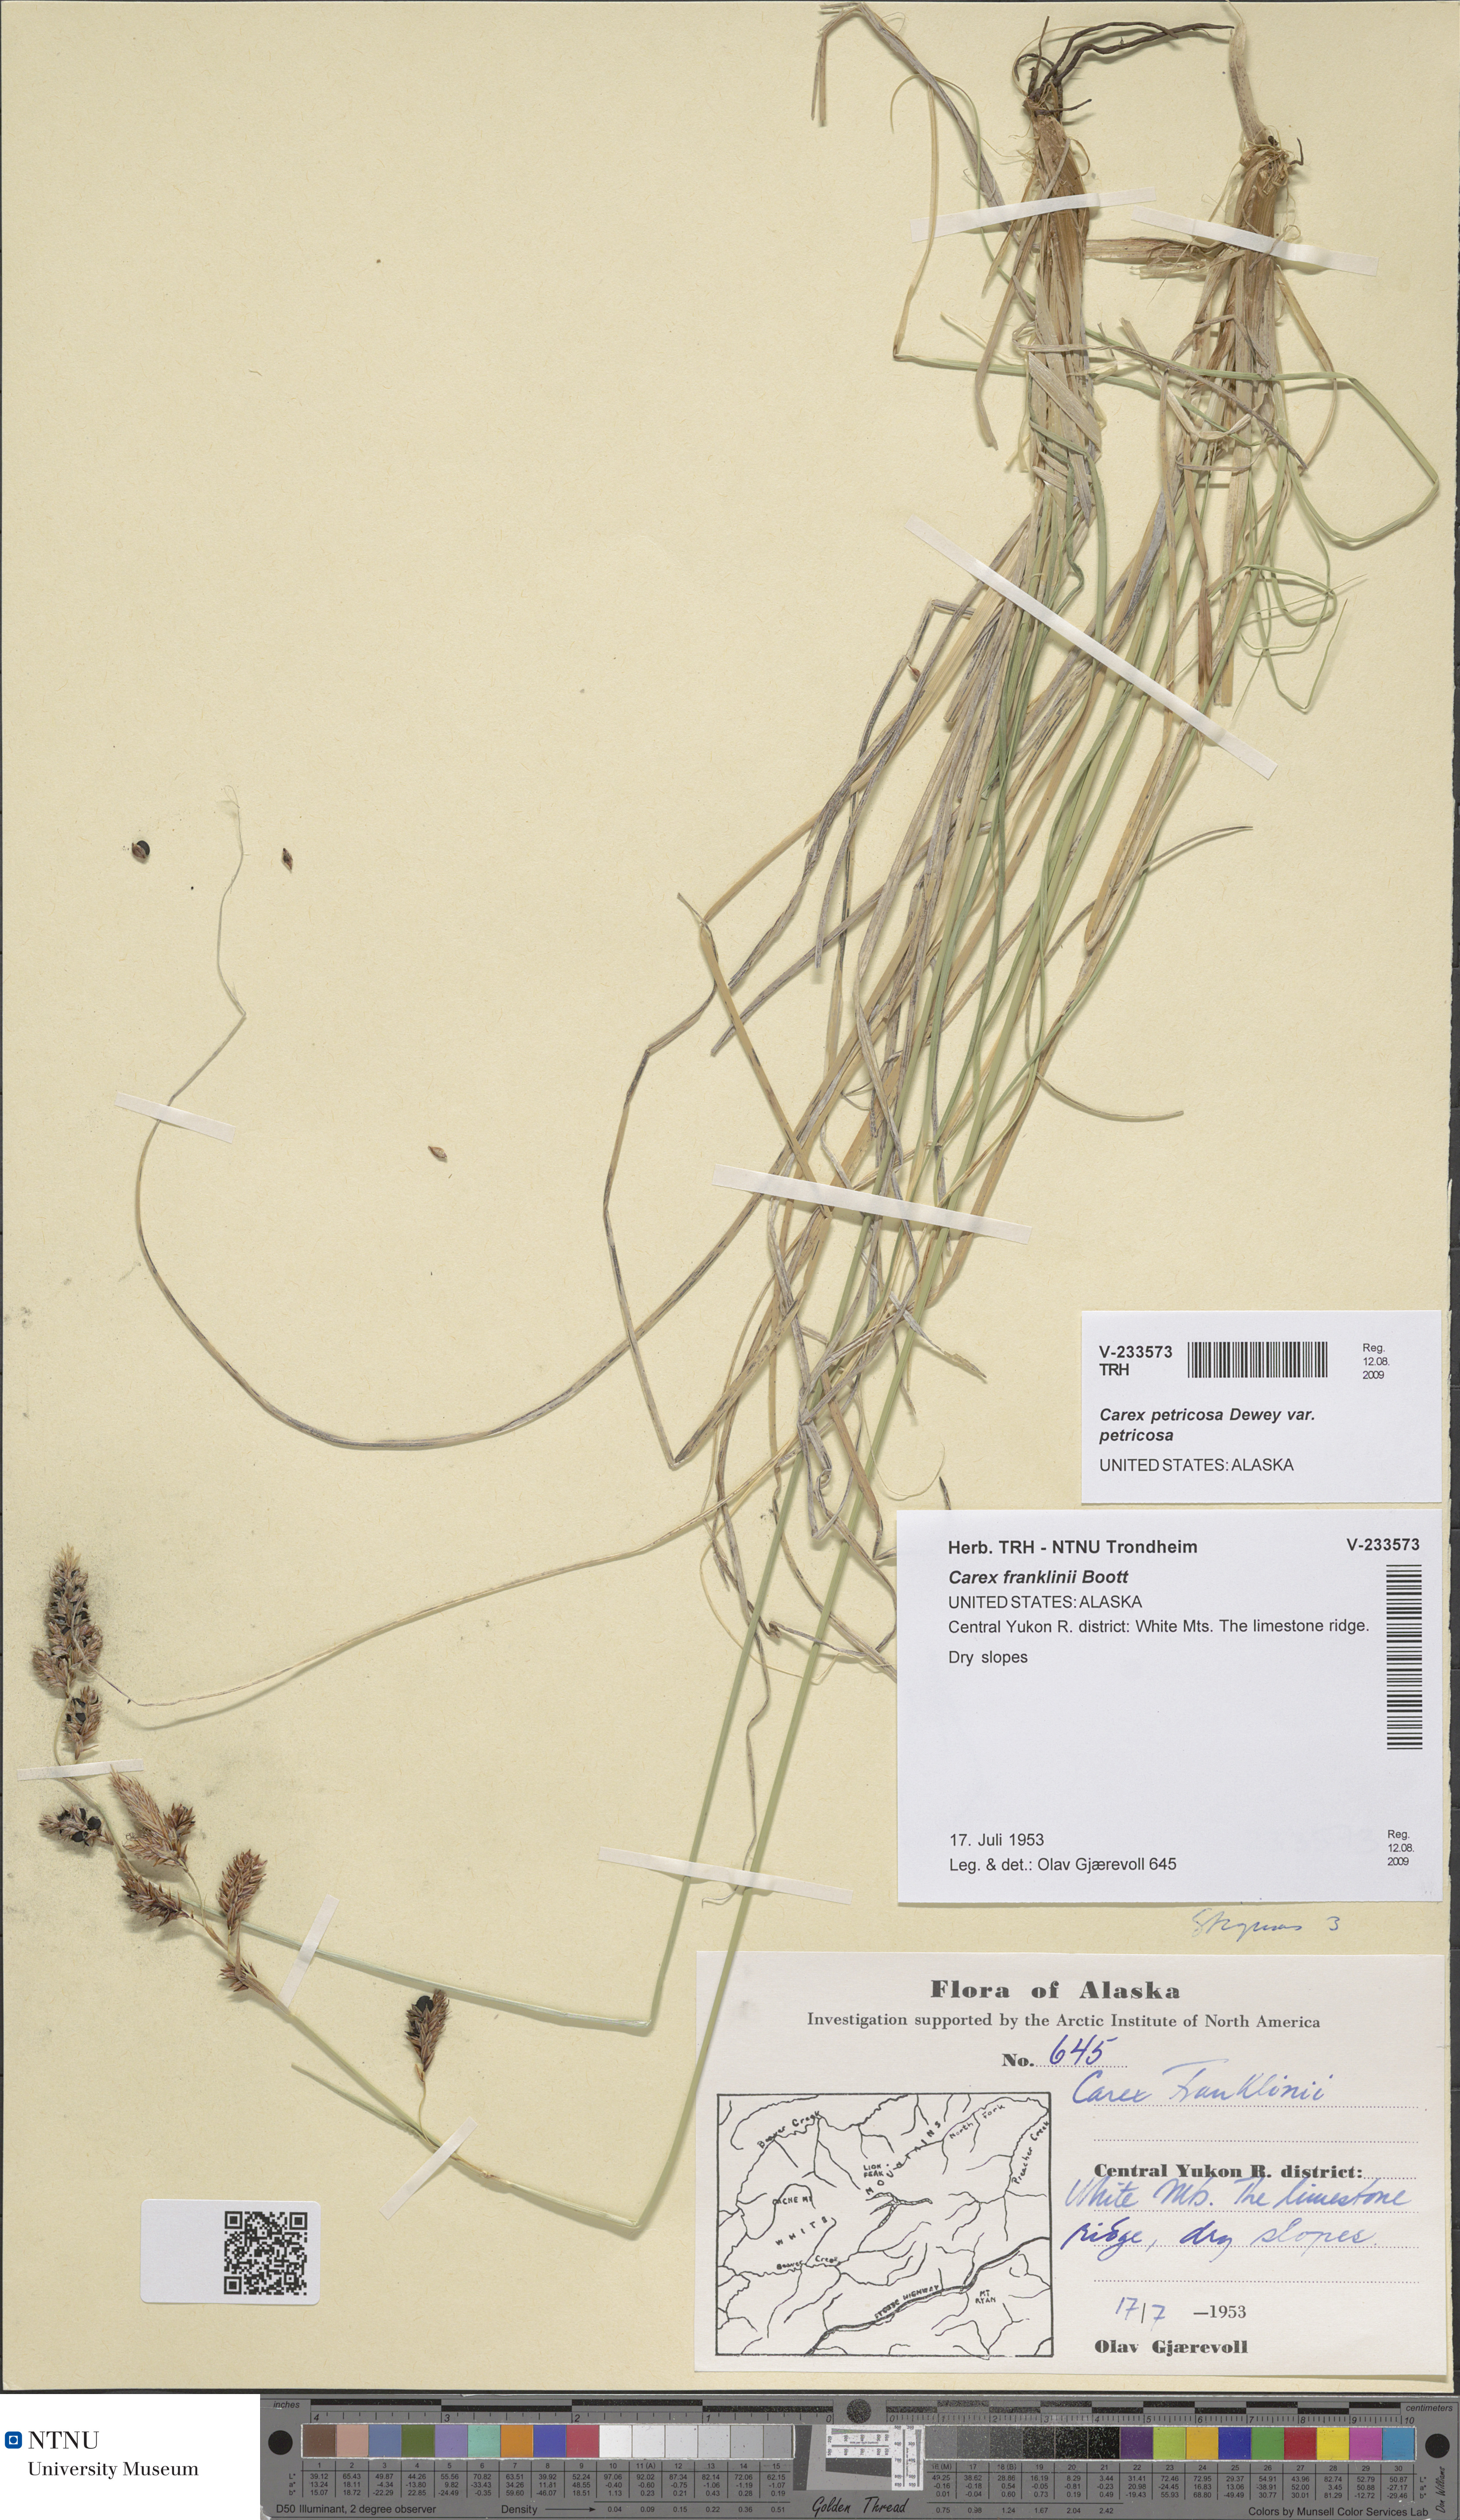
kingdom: Plantae
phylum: Tracheophyta
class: Liliopsida
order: Poales
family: Cyperaceae
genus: Carex
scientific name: Carex petricosa
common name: Rock sedge
